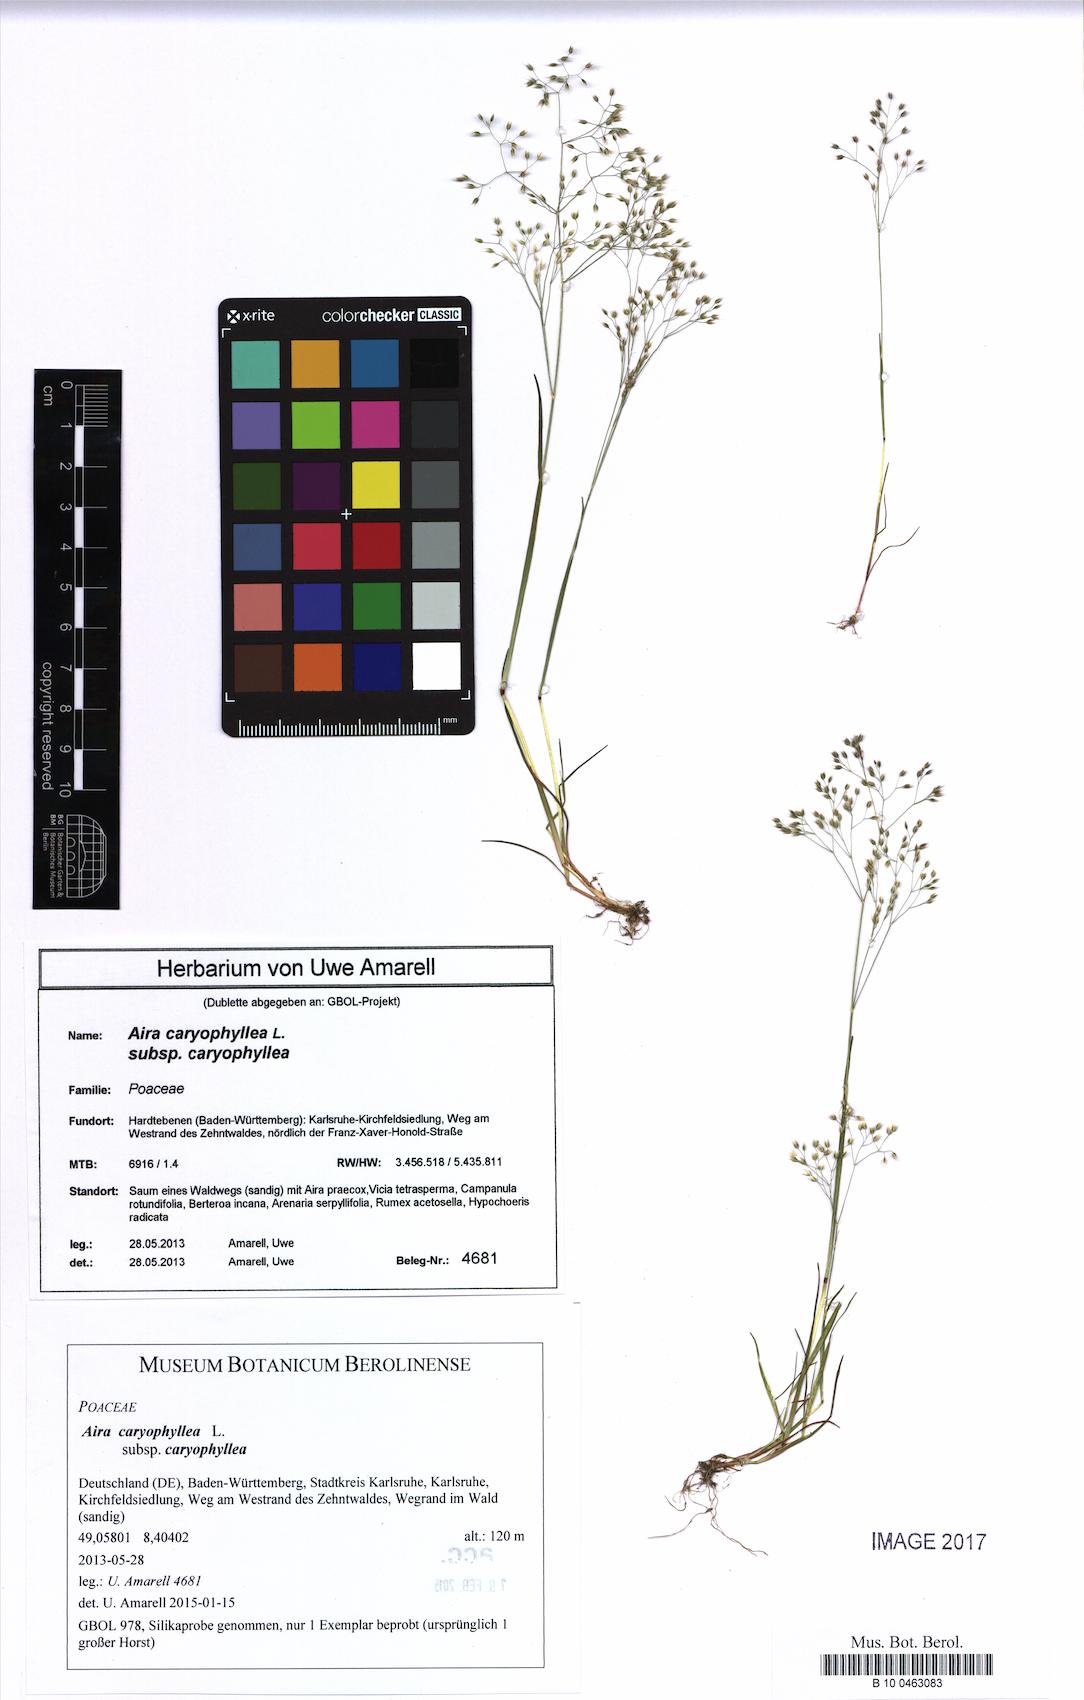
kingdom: Plantae
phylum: Tracheophyta
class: Liliopsida
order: Poales
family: Poaceae
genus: Aira
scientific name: Aira caryophyllea
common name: Silver hairgrass
